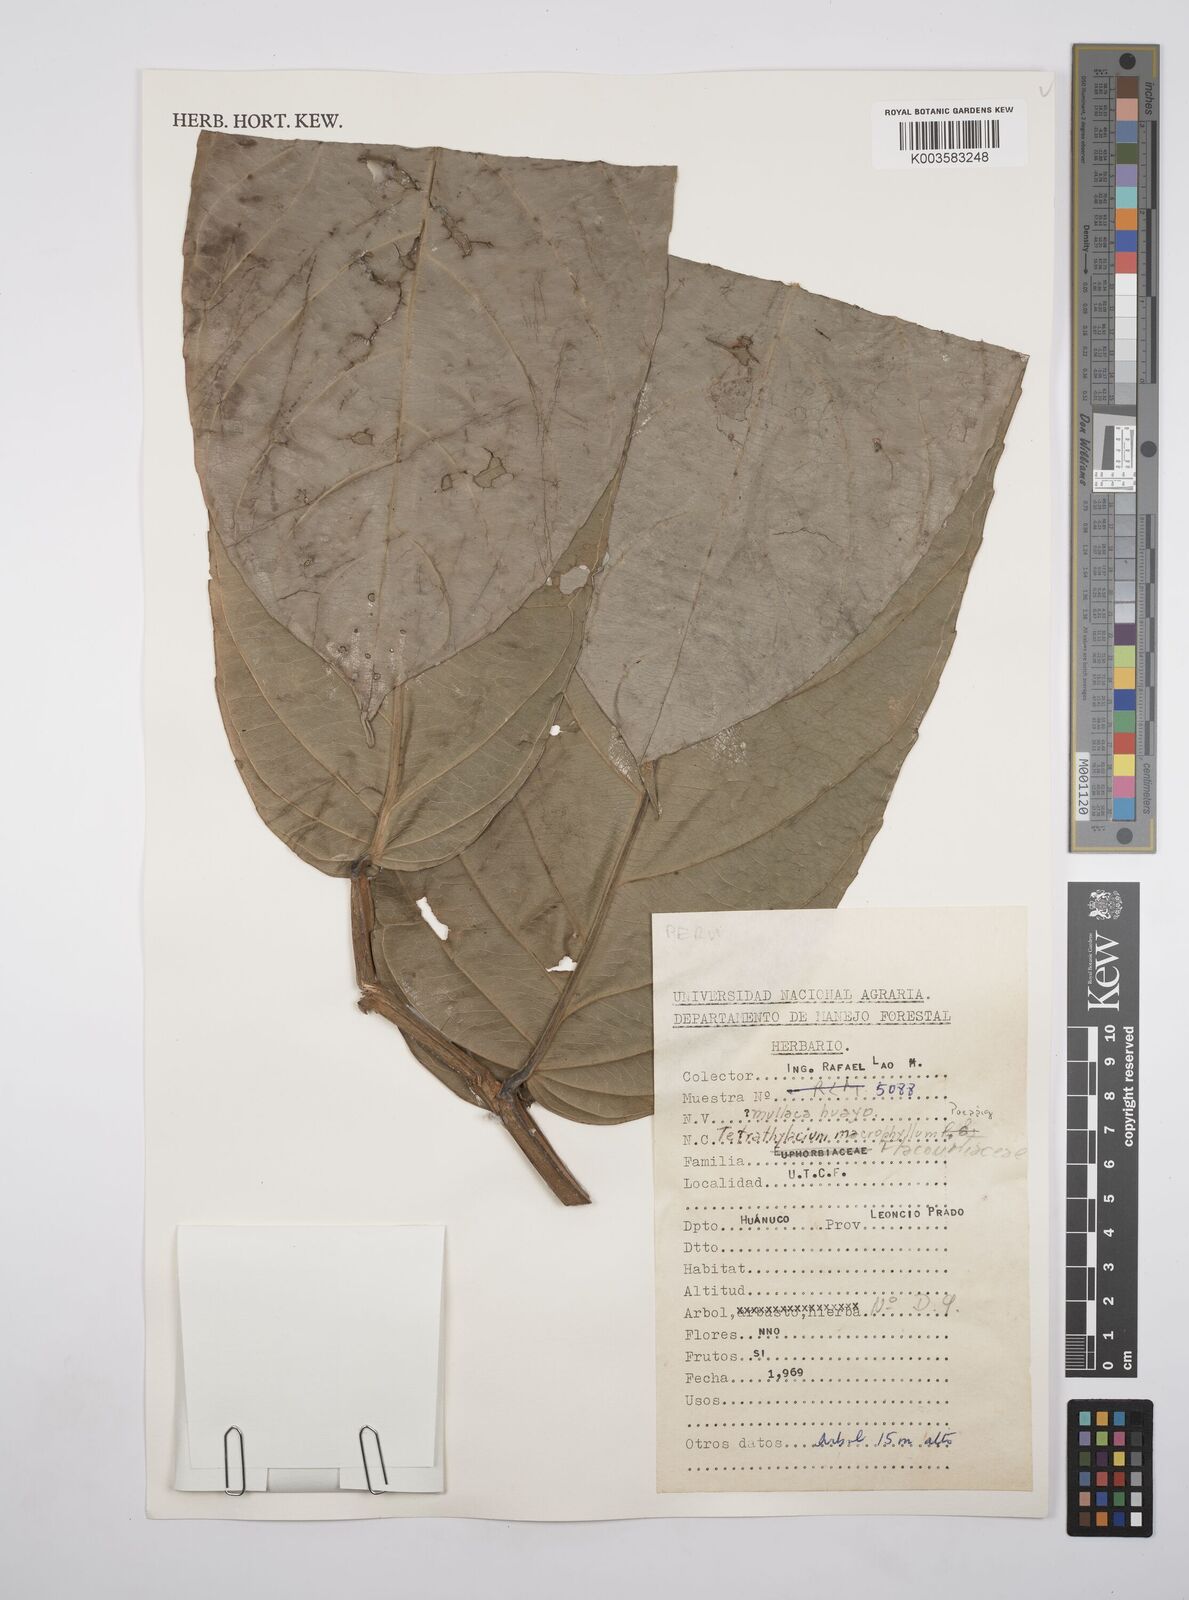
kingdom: Plantae
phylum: Tracheophyta
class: Magnoliopsida
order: Malpighiales
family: Salicaceae
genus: Tetrathylacium
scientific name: Tetrathylacium macrophyllum
